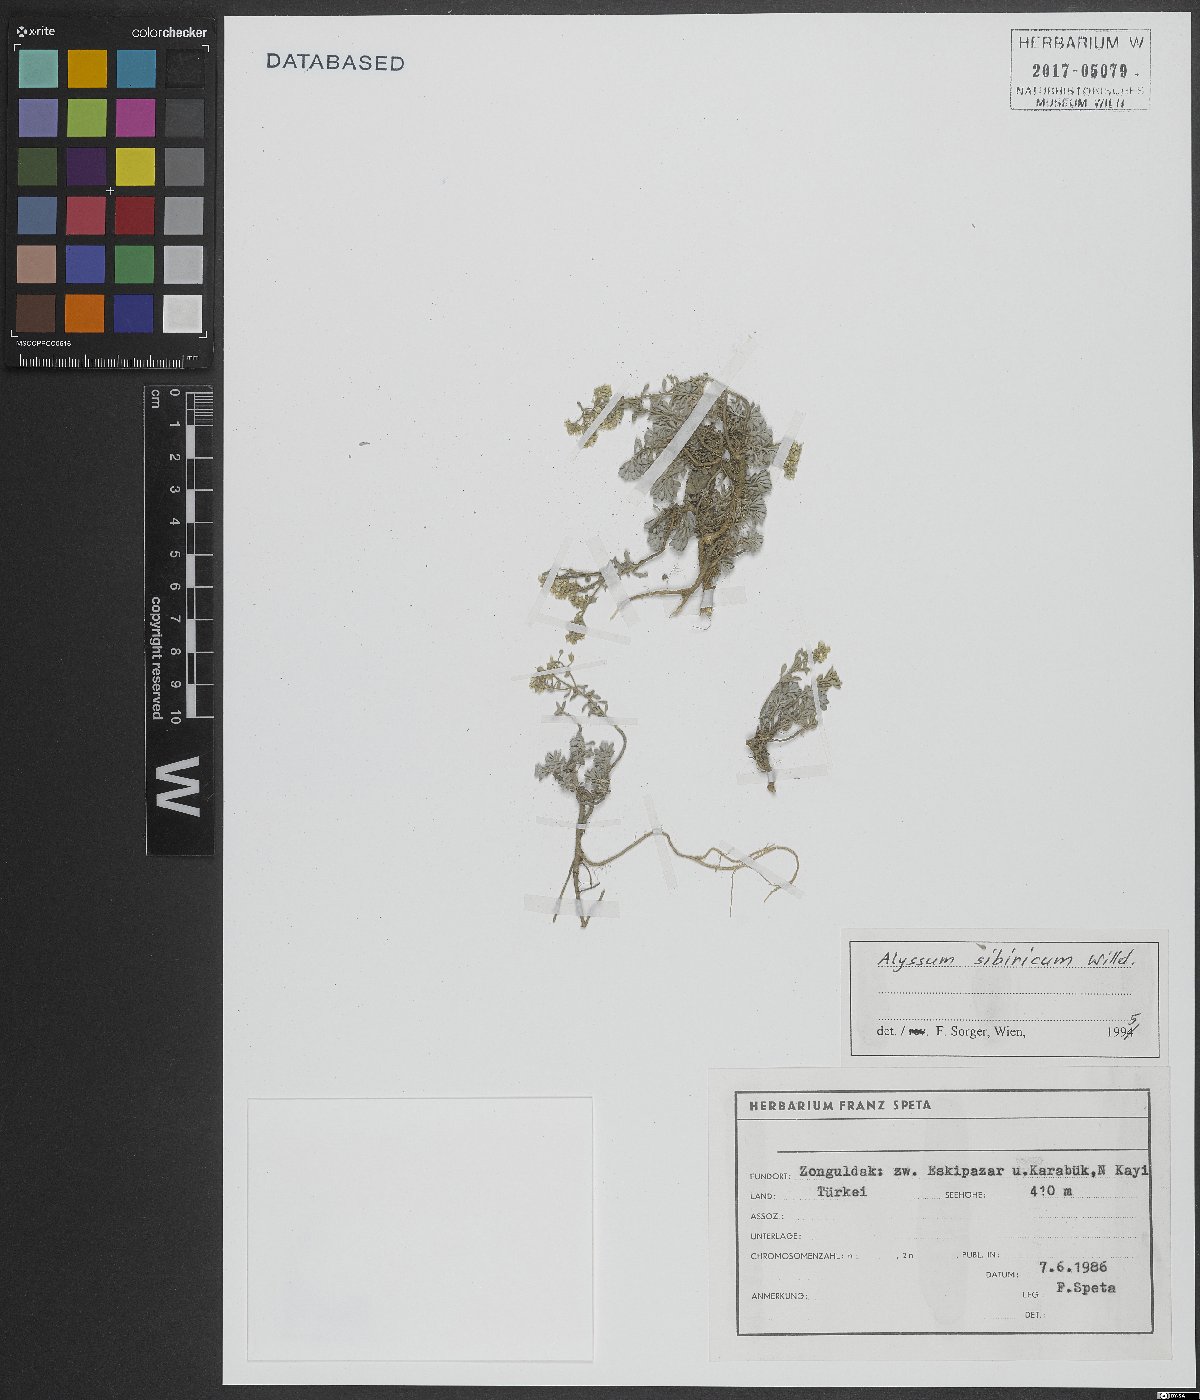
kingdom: Plantae
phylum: Tracheophyta
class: Magnoliopsida
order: Brassicales
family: Brassicaceae
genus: Odontarrhena
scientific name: Odontarrhena sibirica
